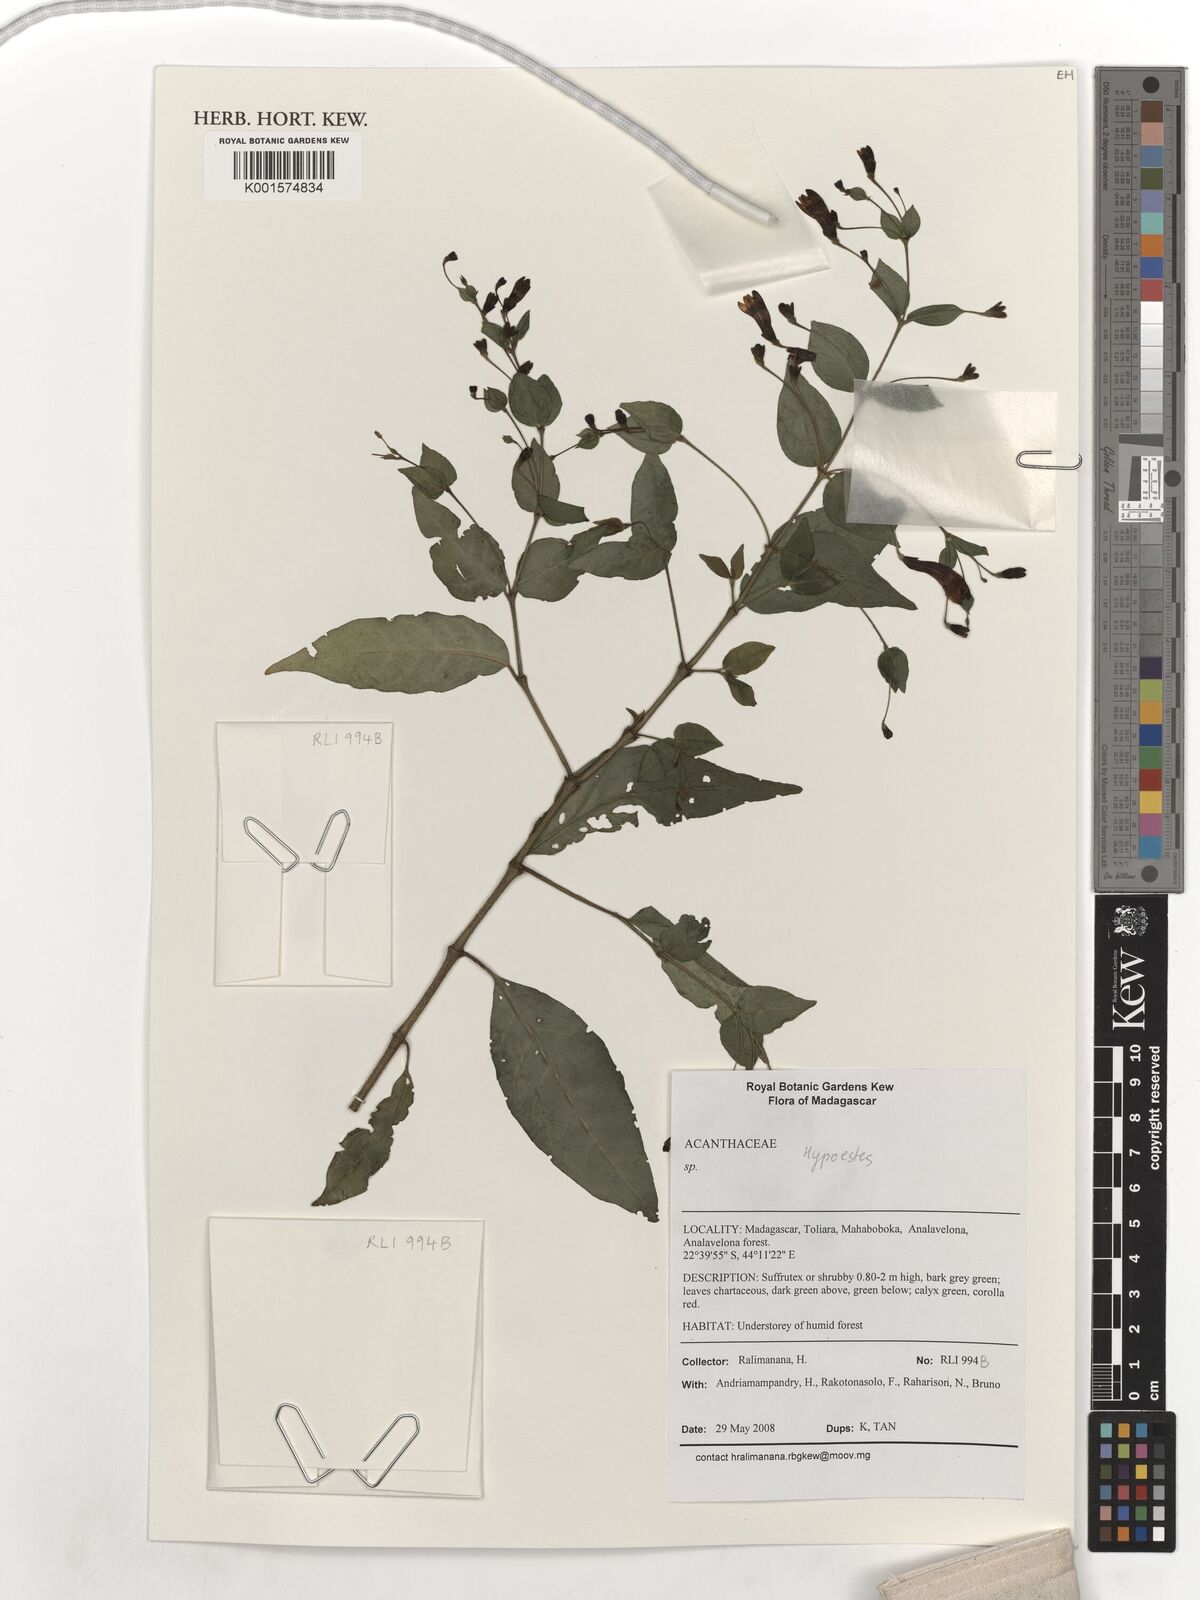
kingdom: Plantae
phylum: Tracheophyta
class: Magnoliopsida
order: Lamiales
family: Acanthaceae
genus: Hypoestes
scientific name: Hypoestes
